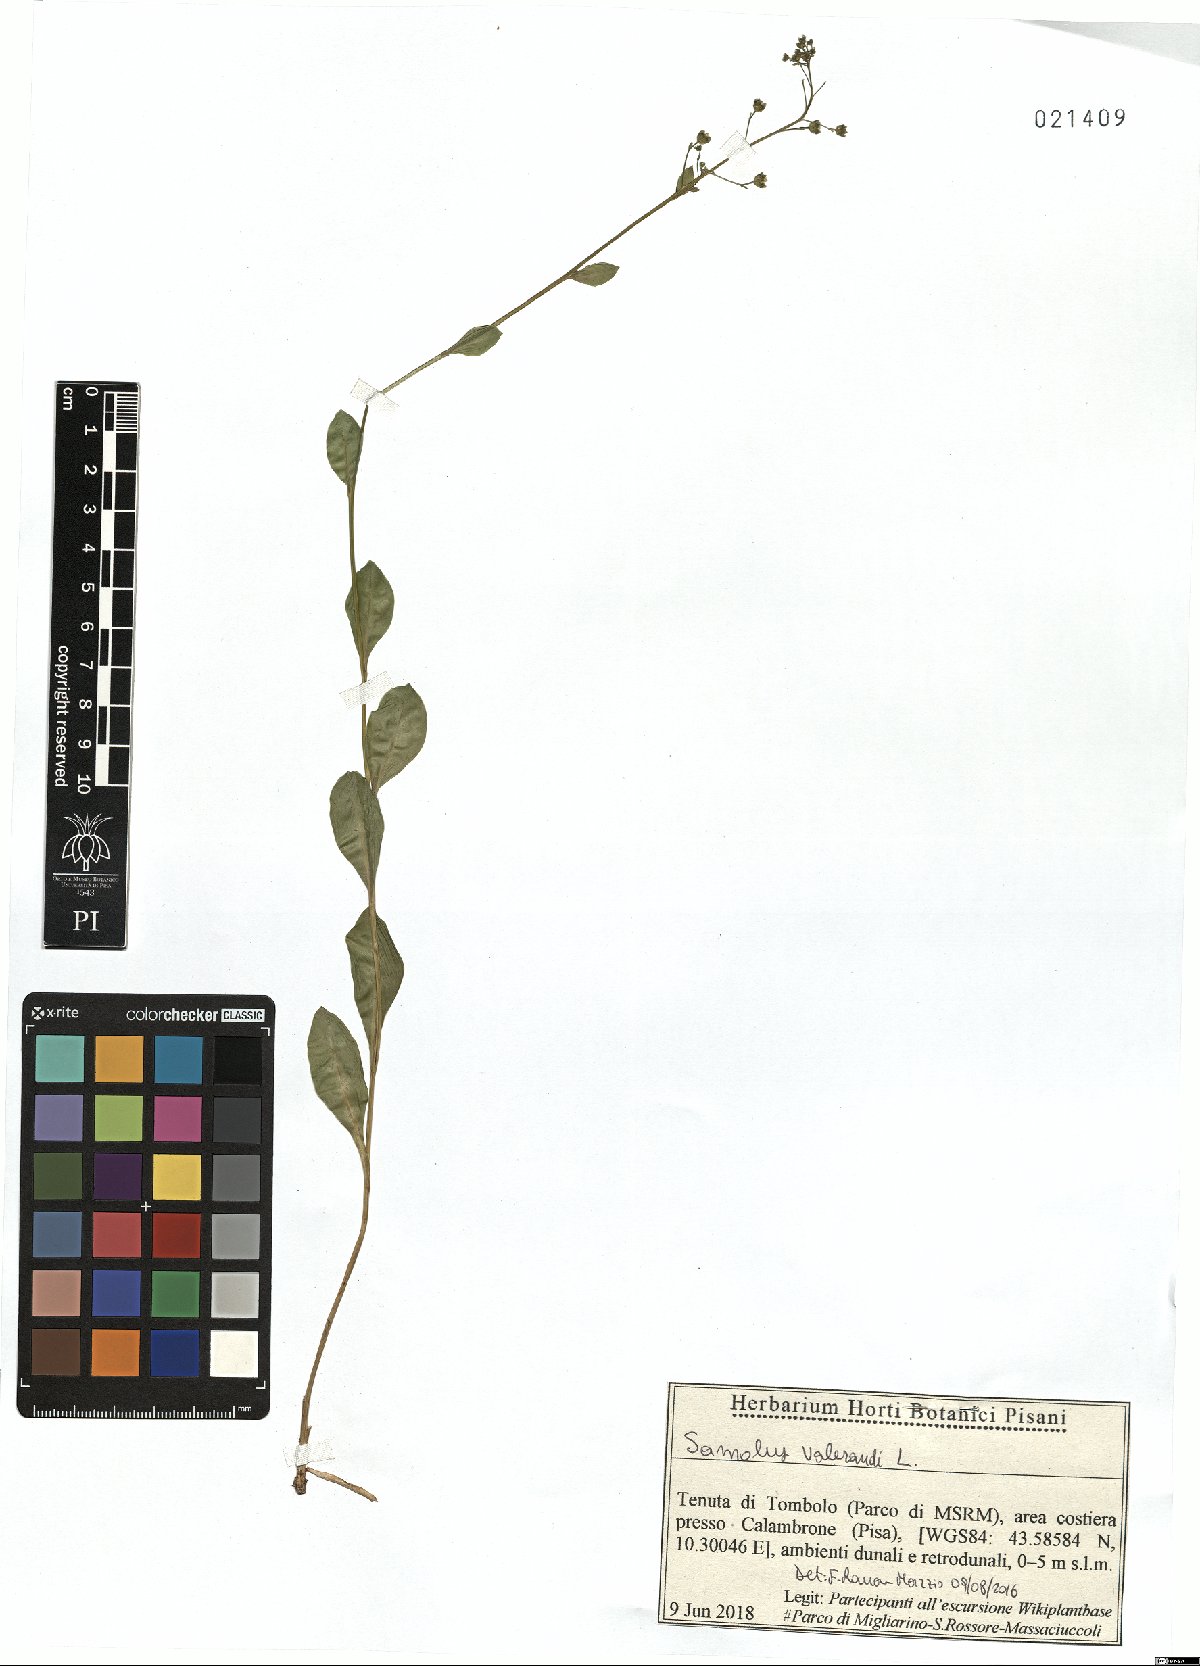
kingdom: Plantae
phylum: Tracheophyta
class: Magnoliopsida
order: Ericales
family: Primulaceae
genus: Samolus
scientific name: Samolus valerandi
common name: Brookweed
